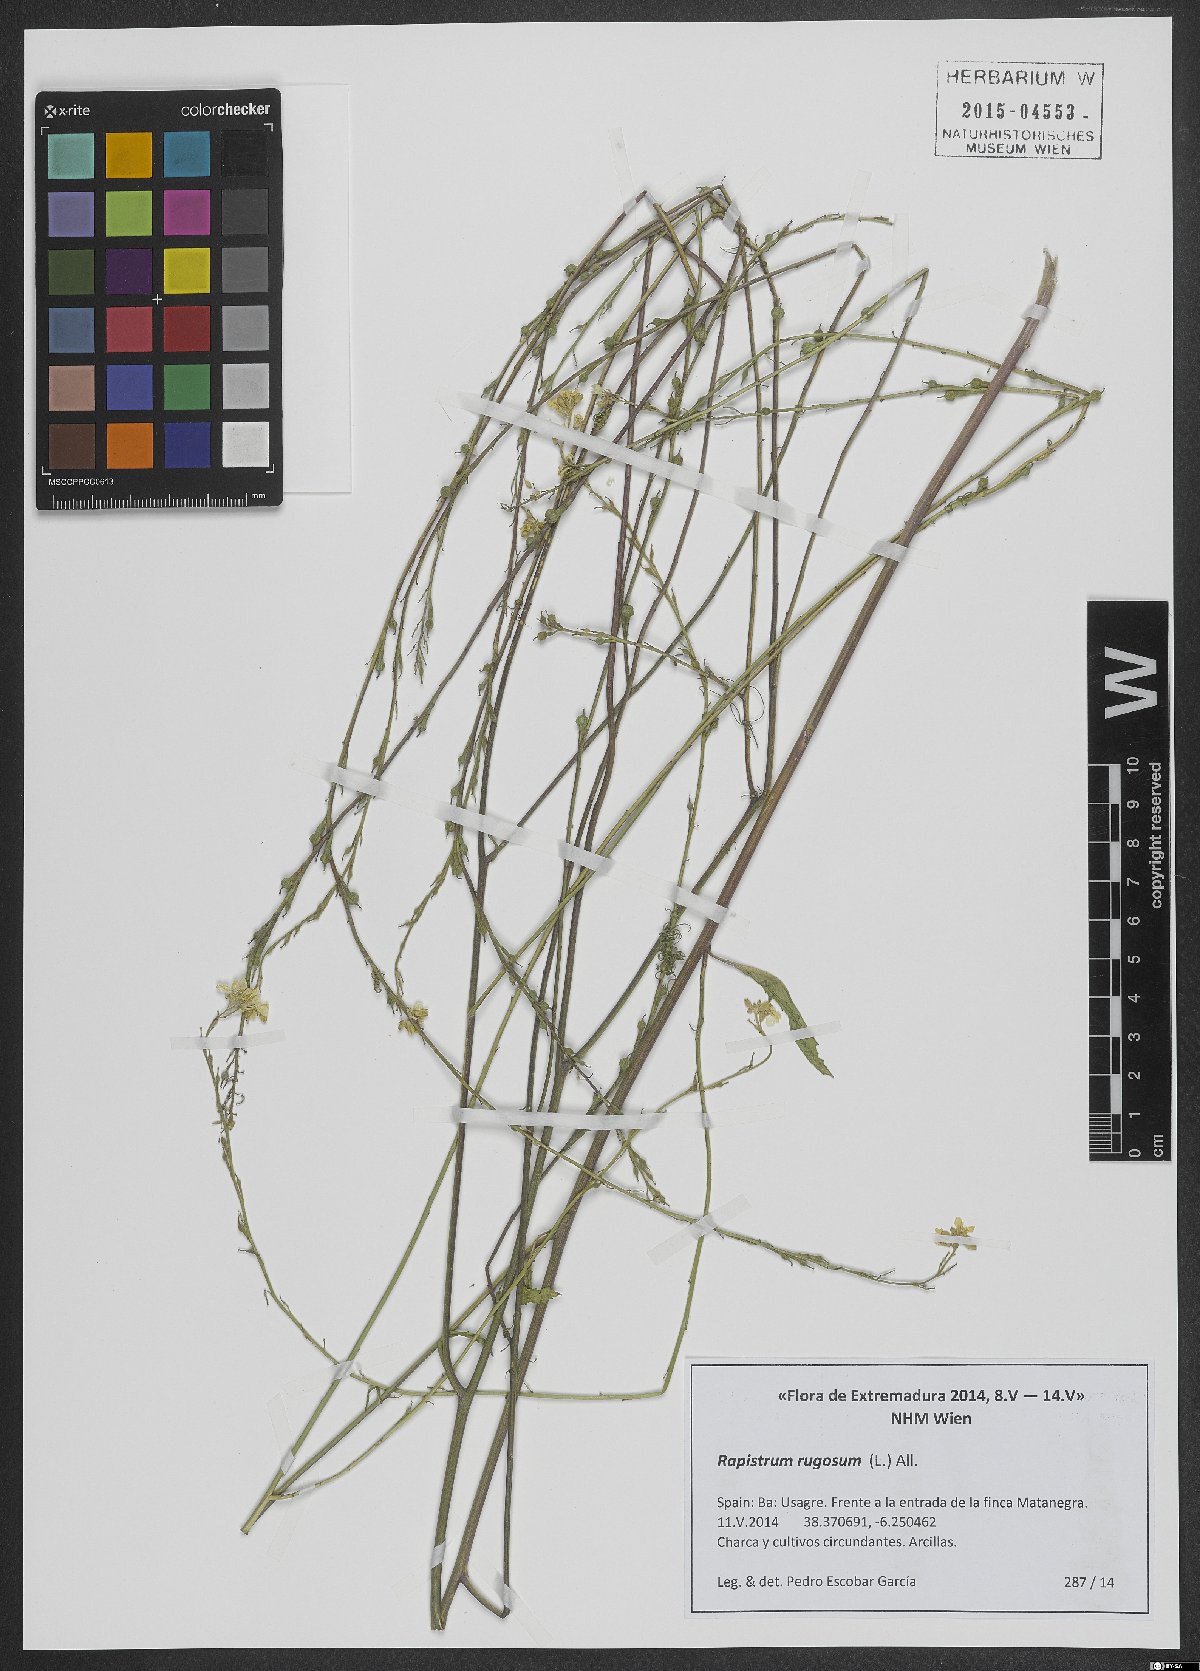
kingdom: Plantae
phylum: Tracheophyta
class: Magnoliopsida
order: Brassicales
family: Brassicaceae
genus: Rapistrum
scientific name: Rapistrum rugosum
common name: Annual bastardcabbage
